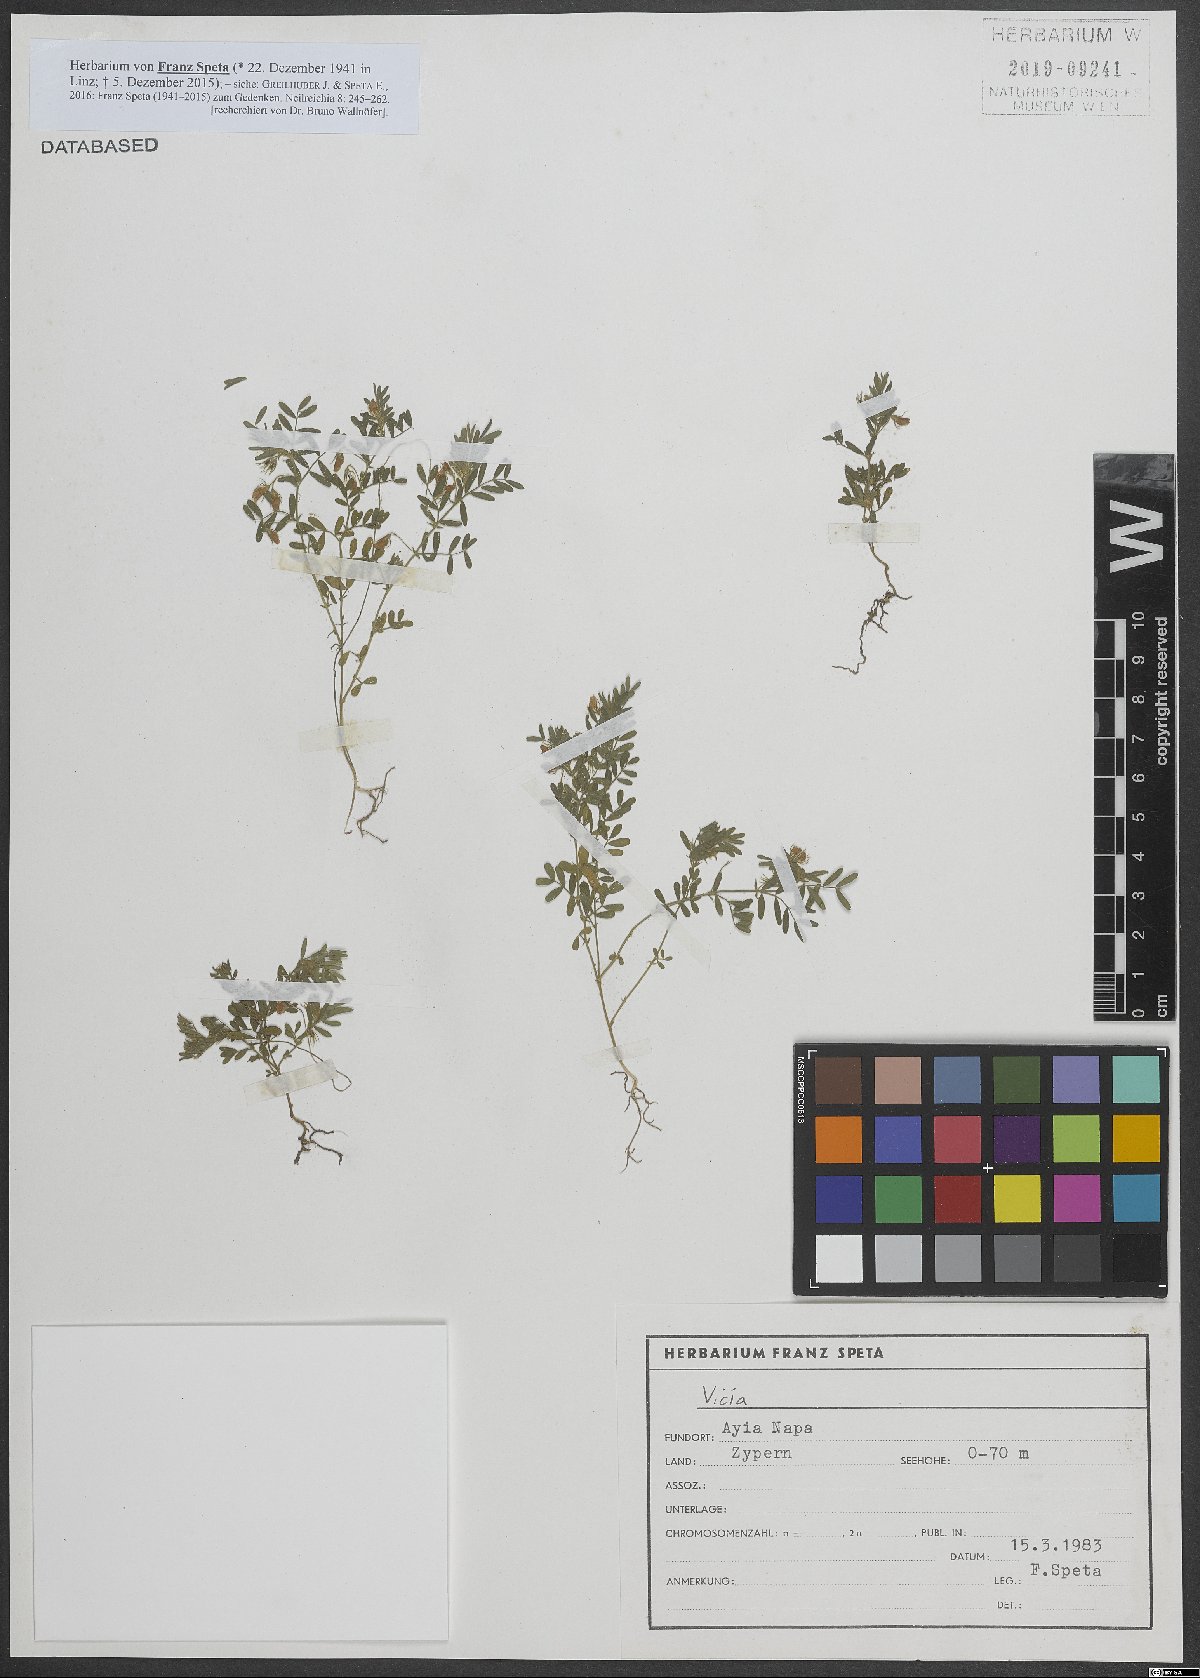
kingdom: Plantae
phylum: Tracheophyta
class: Magnoliopsida
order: Fabales
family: Fabaceae
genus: Vicia
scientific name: Vicia
